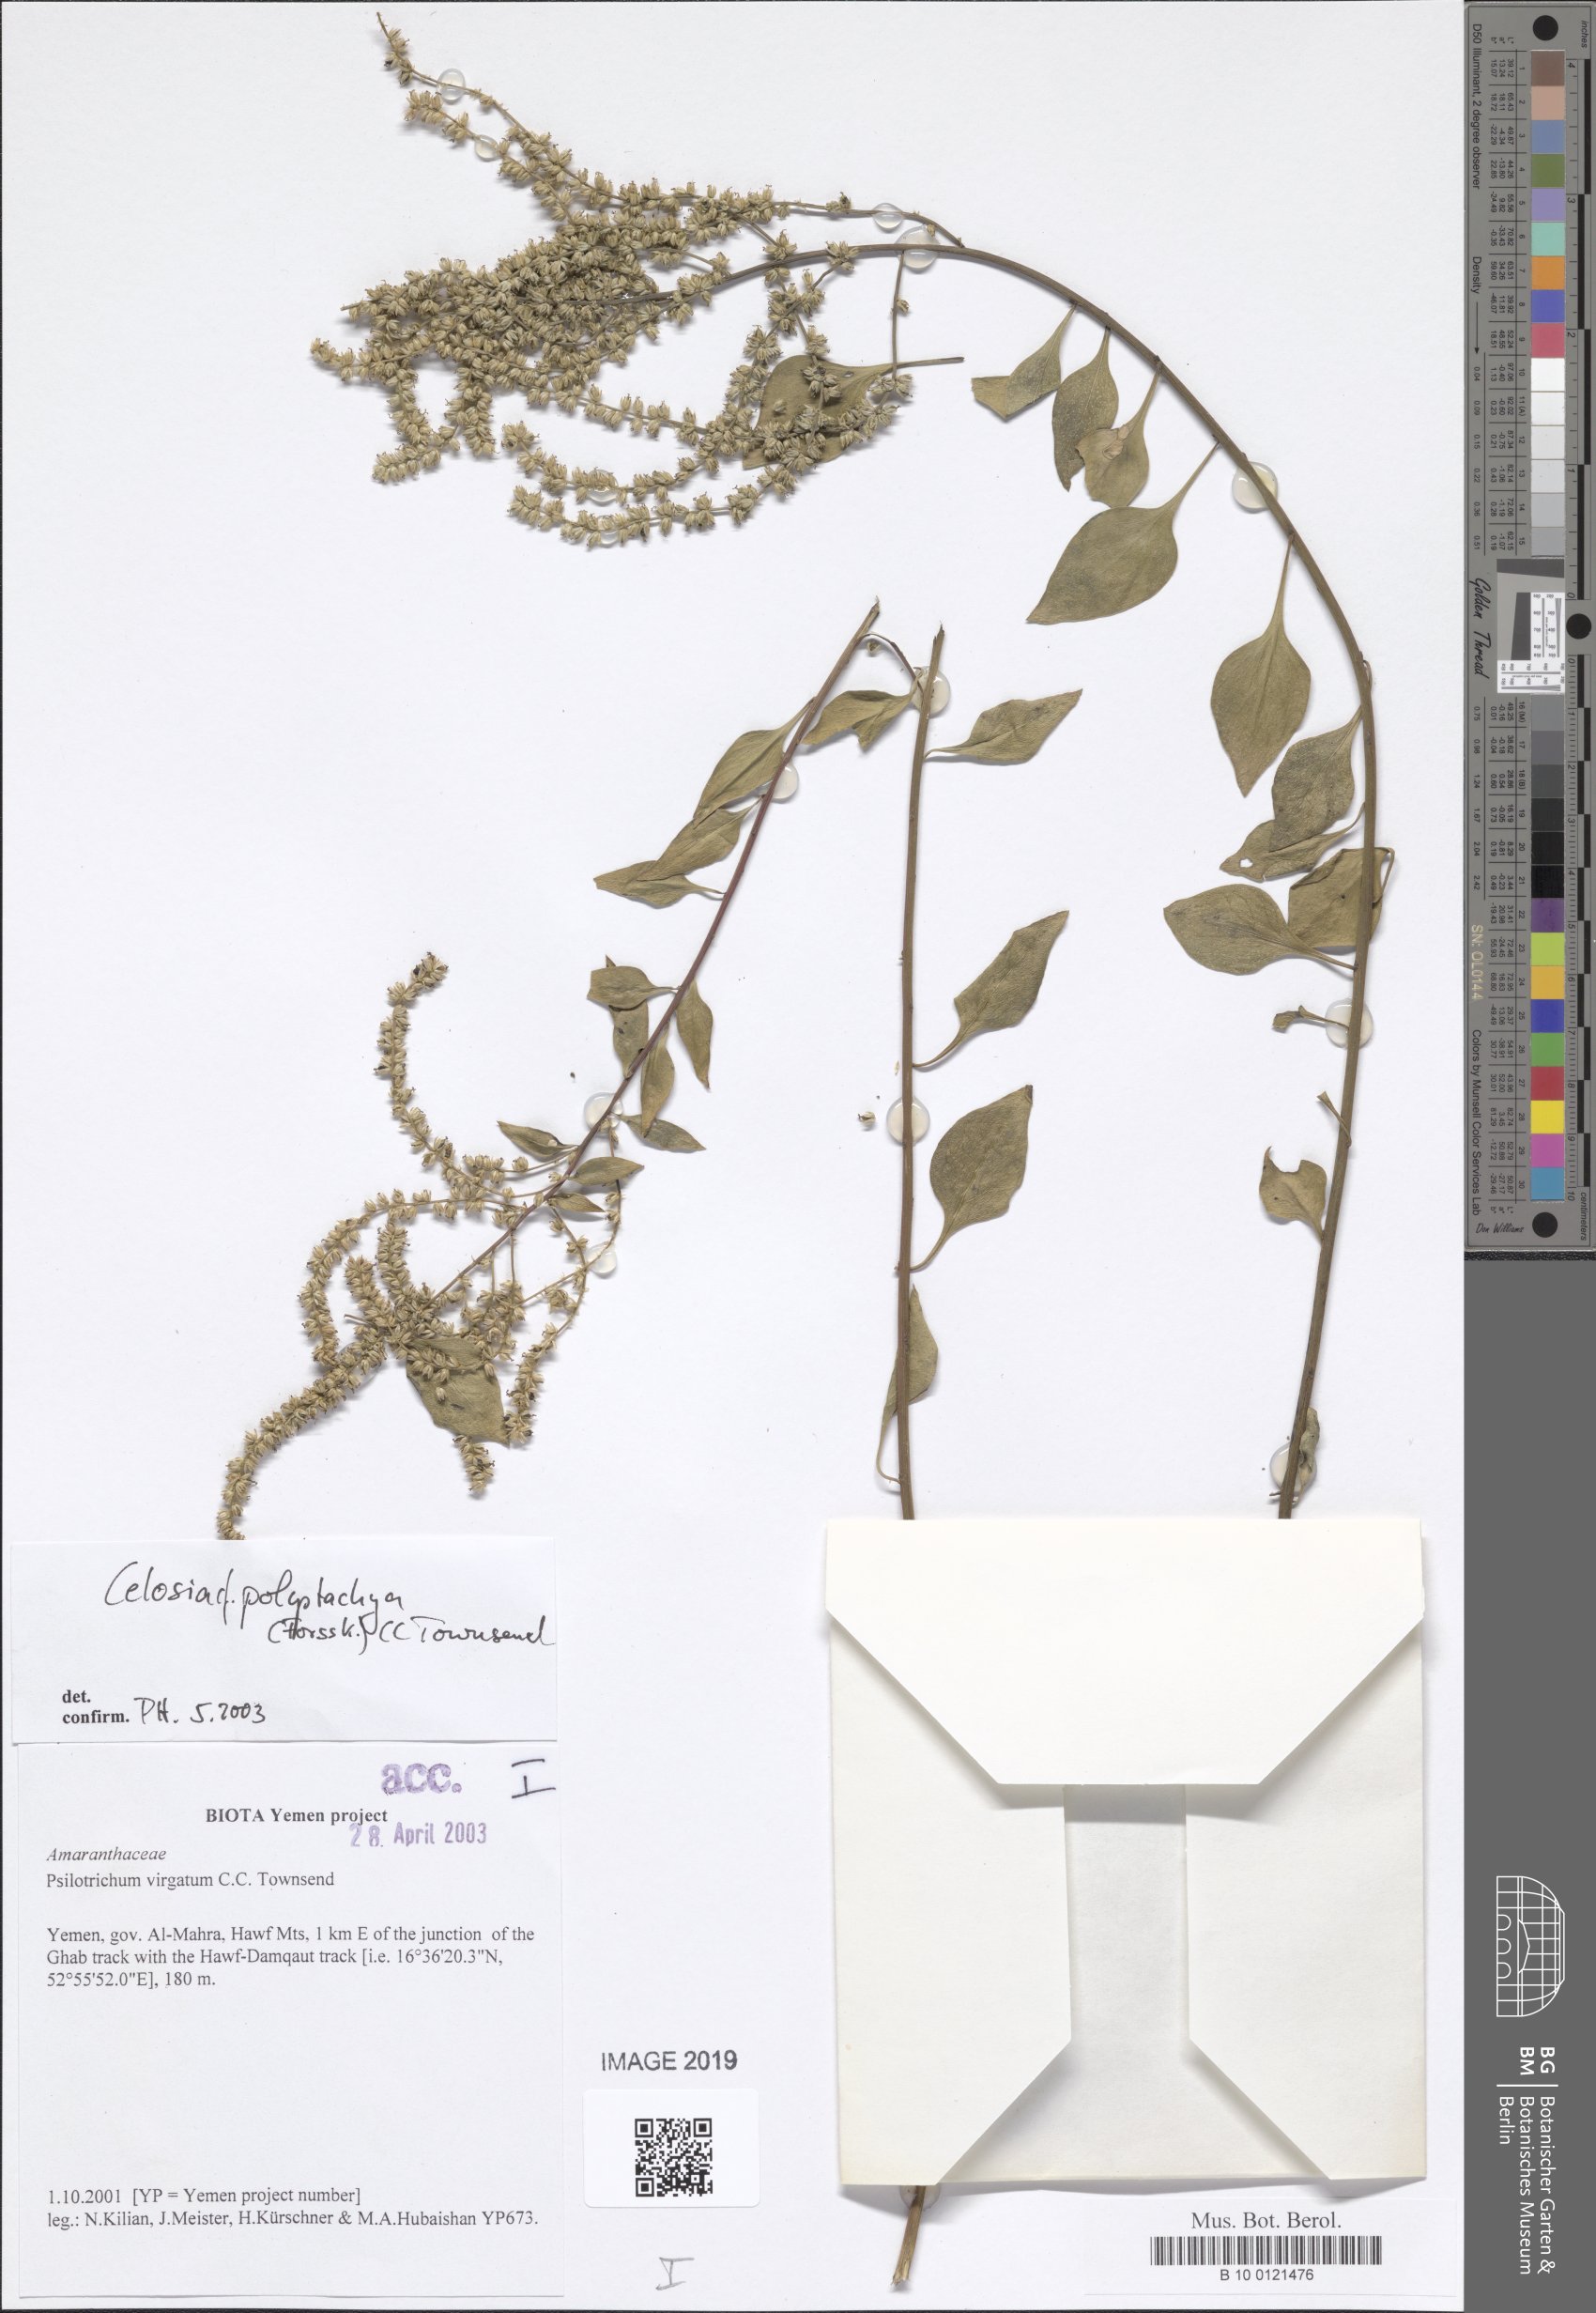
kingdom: Plantae
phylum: Tracheophyta
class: Magnoliopsida
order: Caryophyllales
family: Amaranthaceae
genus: Psilotrichum
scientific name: Psilotrichum virgatum
